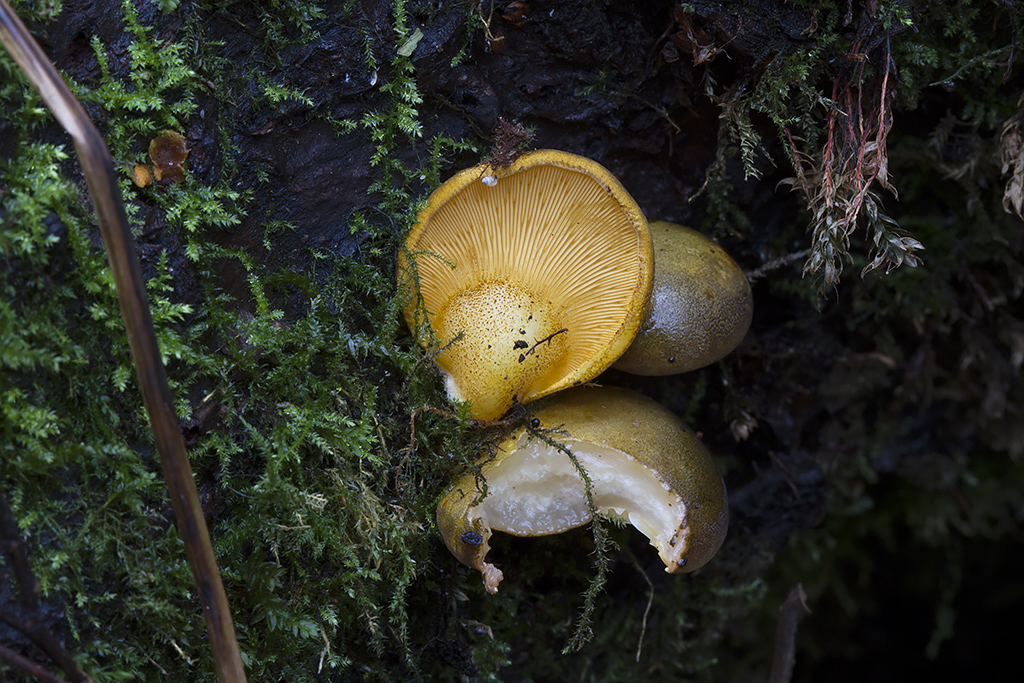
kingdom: Fungi
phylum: Basidiomycota
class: Agaricomycetes
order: Agaricales
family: Sarcomyxaceae
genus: Sarcomyxa
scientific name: Sarcomyxa serotina
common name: gummihat
